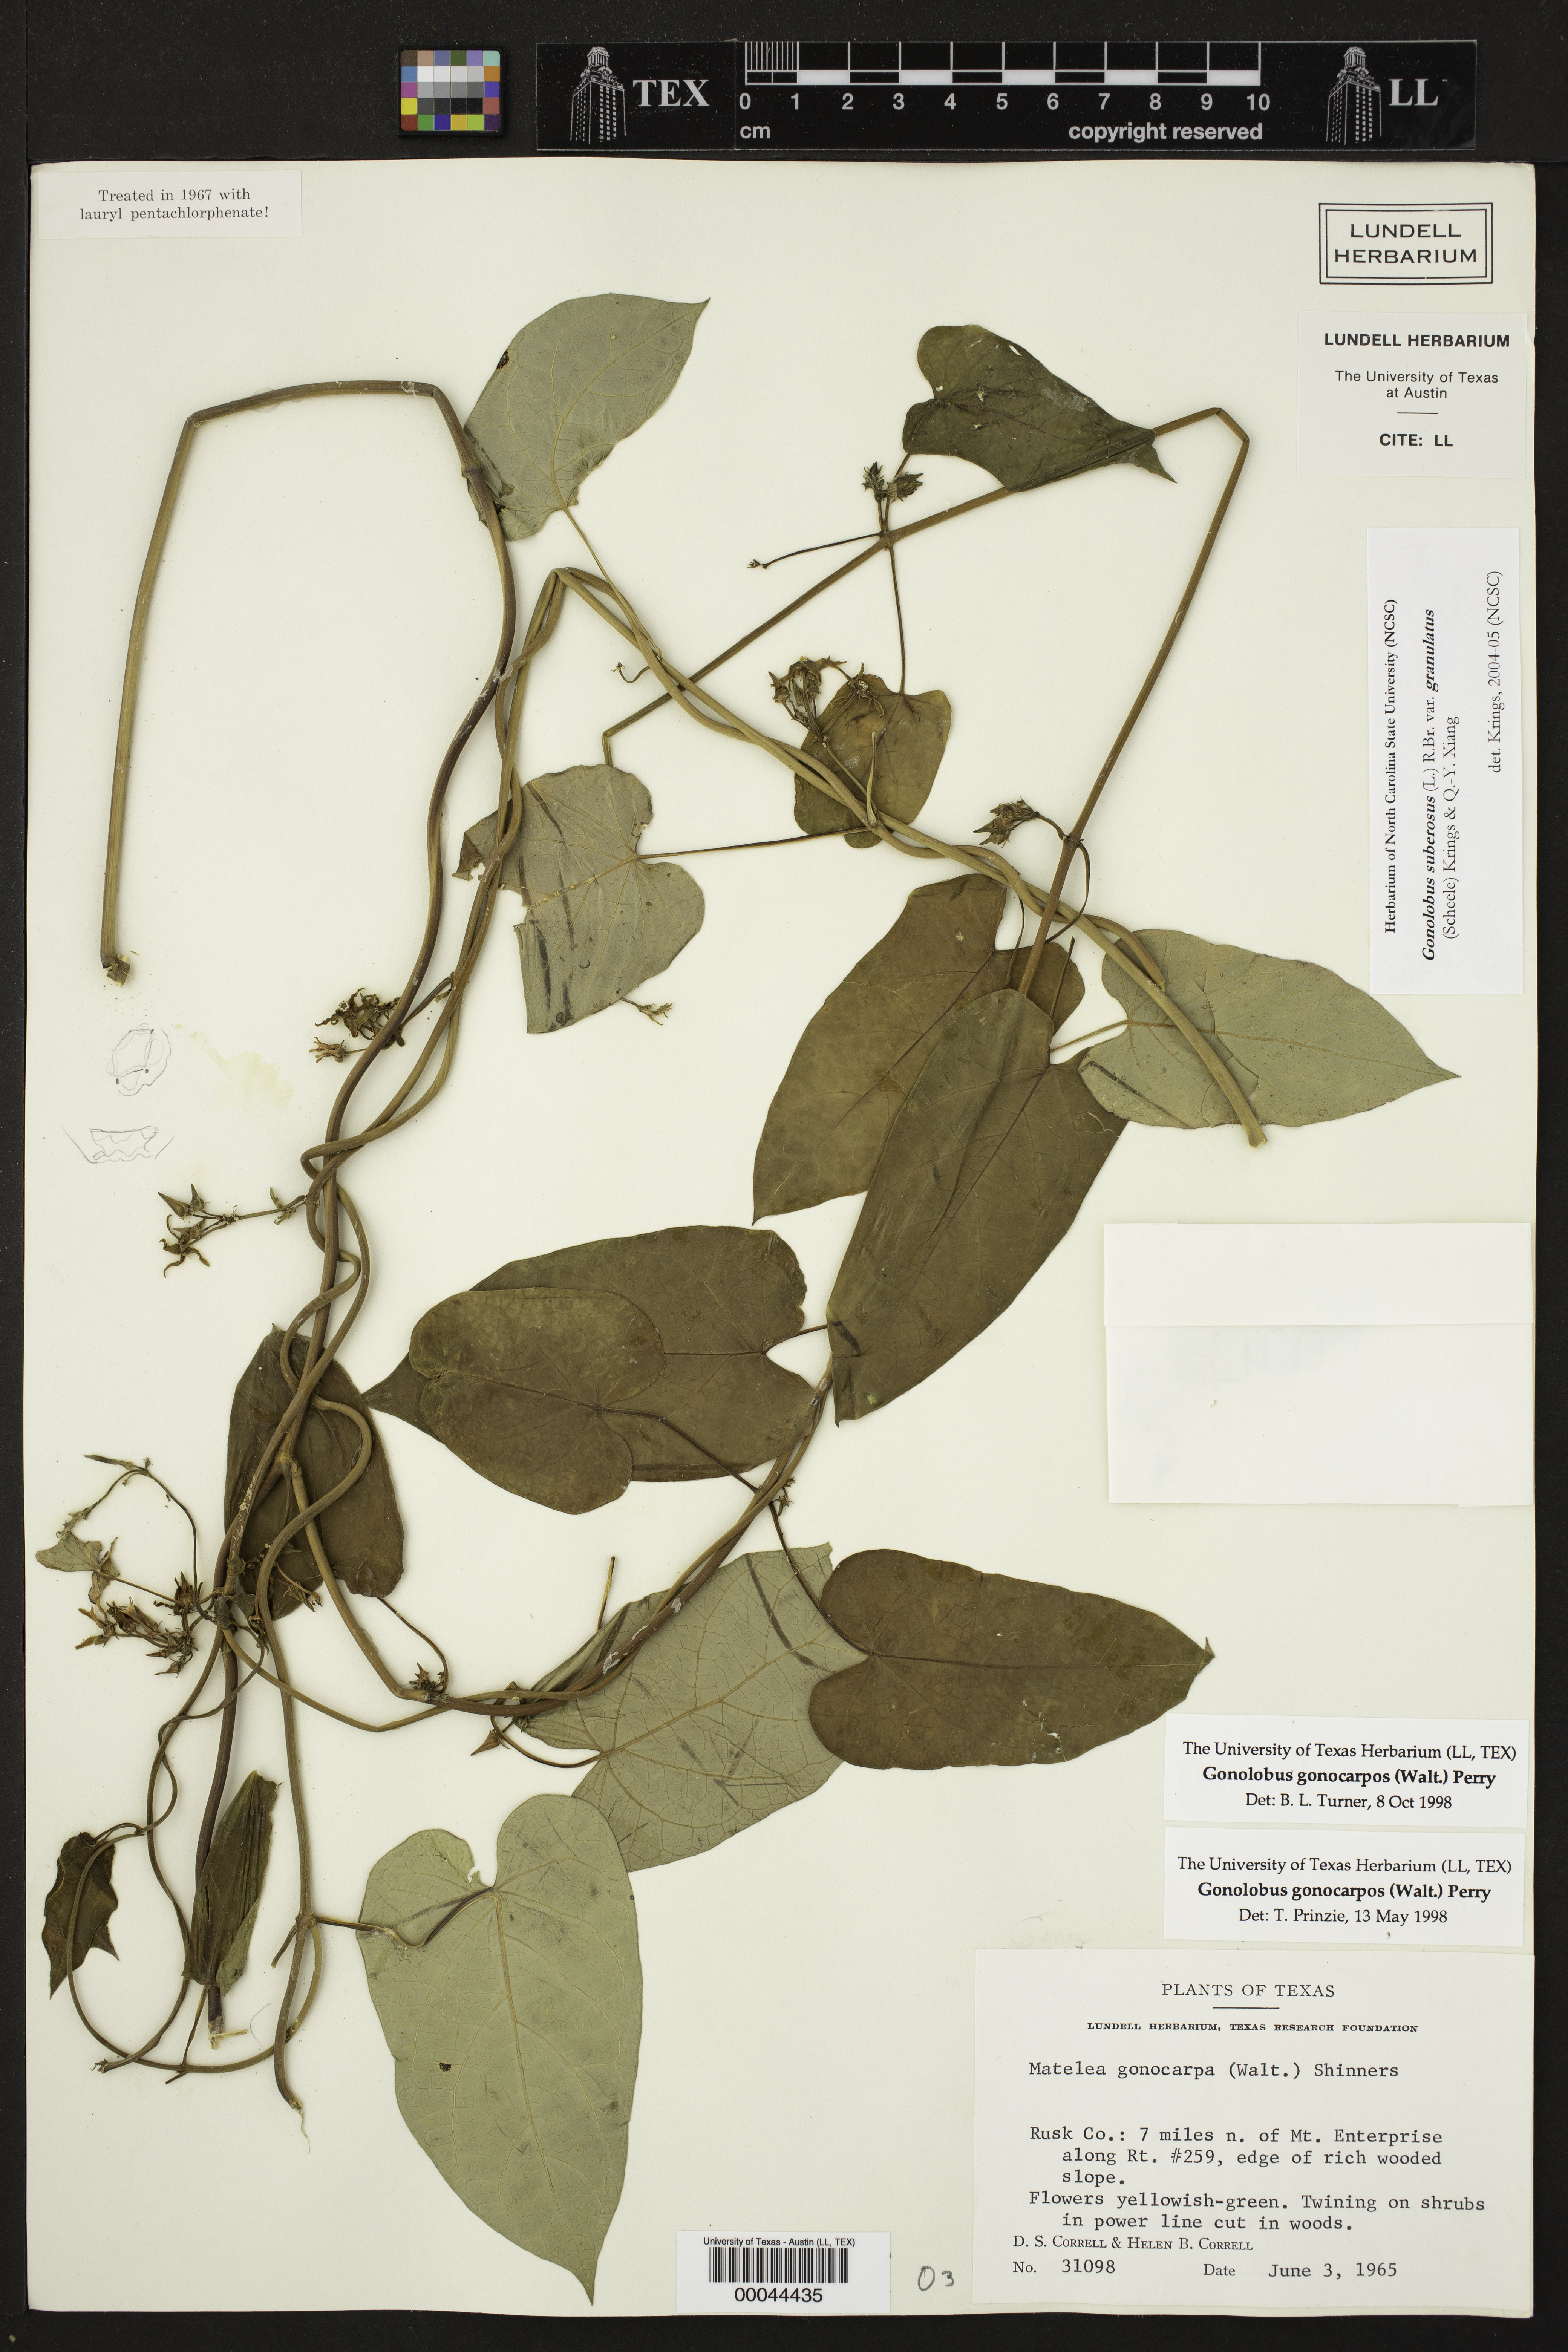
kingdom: Plantae
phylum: Tracheophyta
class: Magnoliopsida
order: Gentianales
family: Apocynaceae
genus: Gonolobus
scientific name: Gonolobus suberosus
